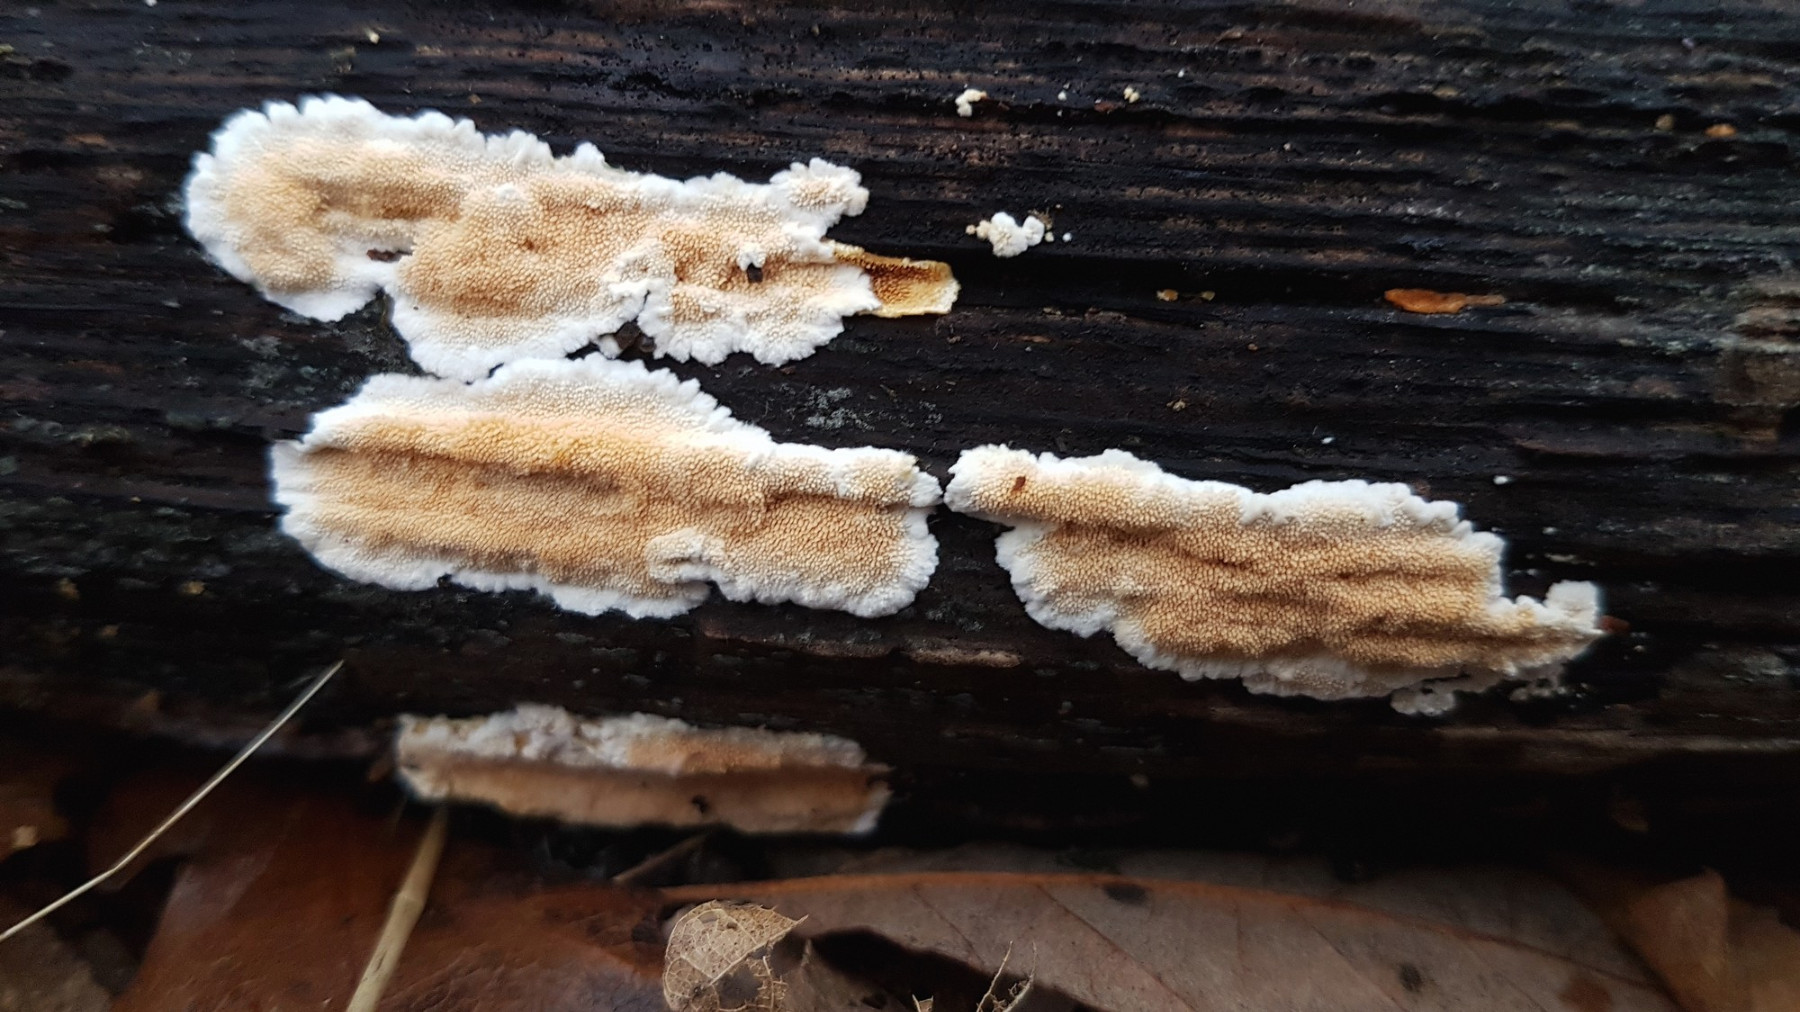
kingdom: Fungi
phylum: Basidiomycota
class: Agaricomycetes
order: Polyporales
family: Steccherinaceae
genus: Steccherinum
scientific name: Steccherinum ochraceum
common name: almindelig skønpig
